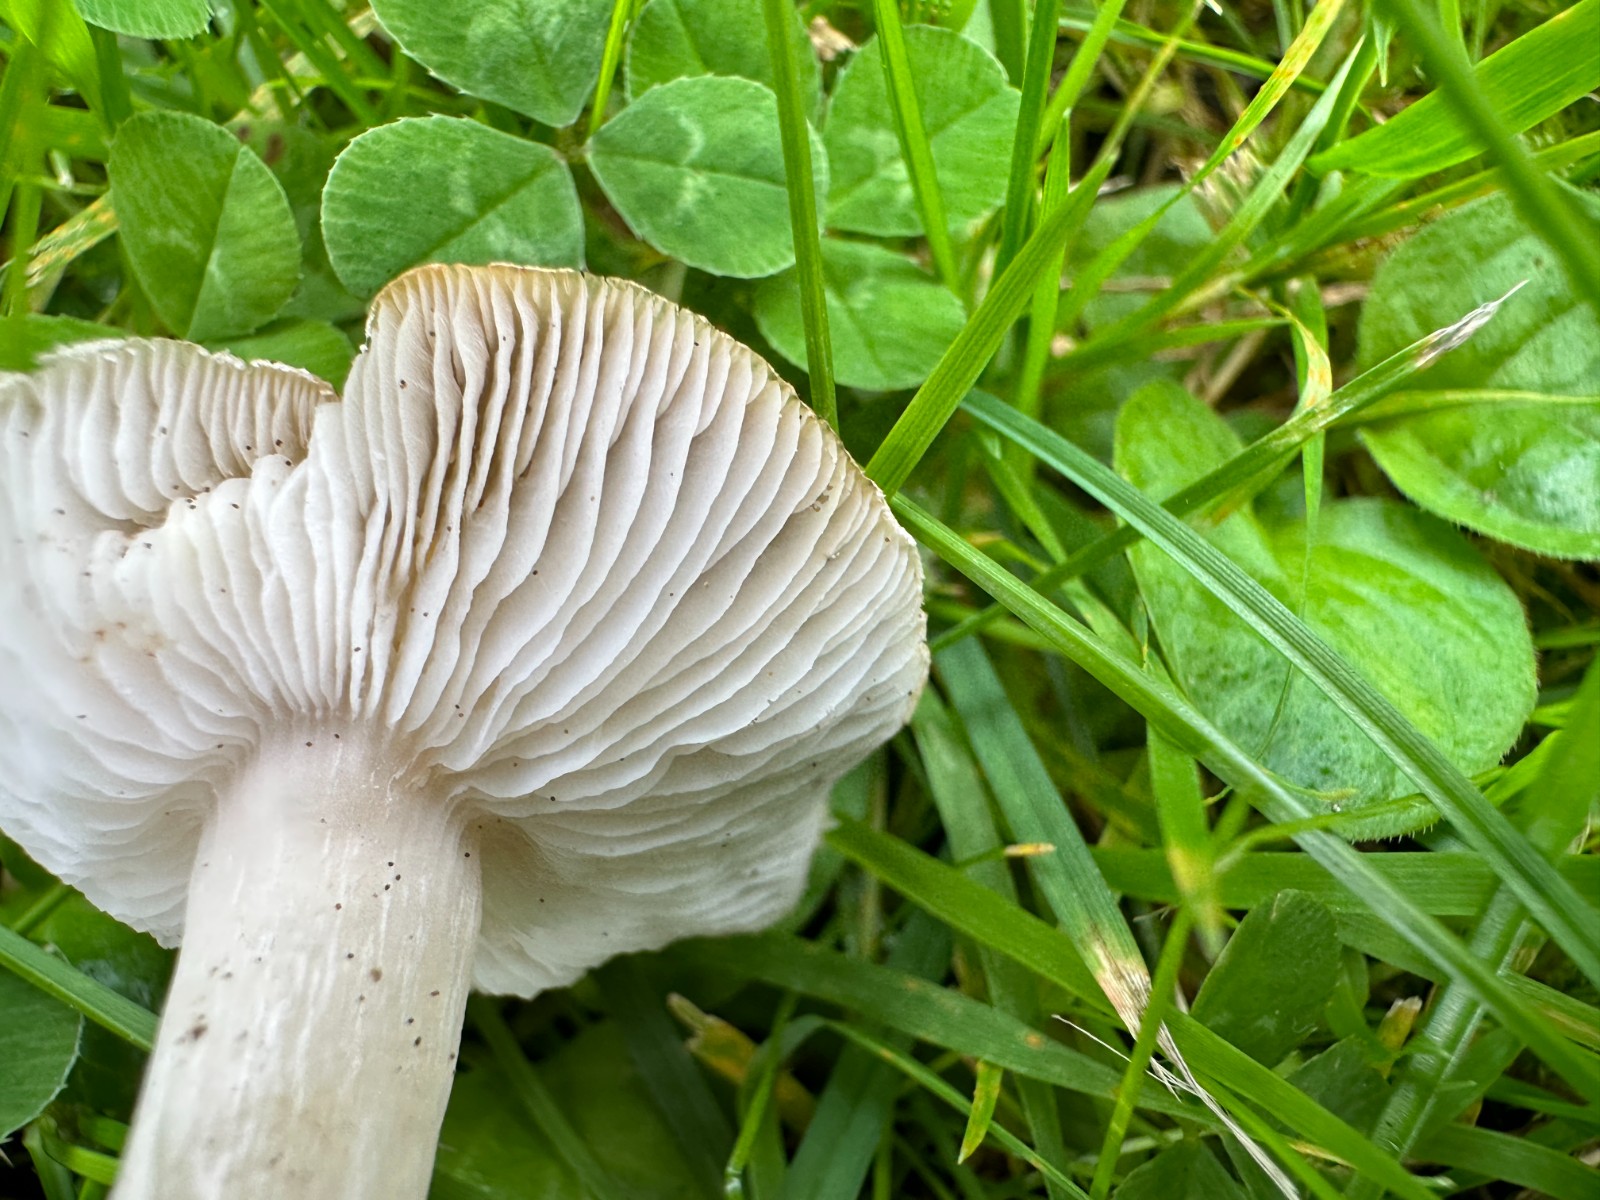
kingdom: Fungi
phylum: Basidiomycota
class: Agaricomycetes
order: Agaricales
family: Tricholomataceae
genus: Tricholoma
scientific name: Tricholoma scalpturatum
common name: gulplettet ridderhat
